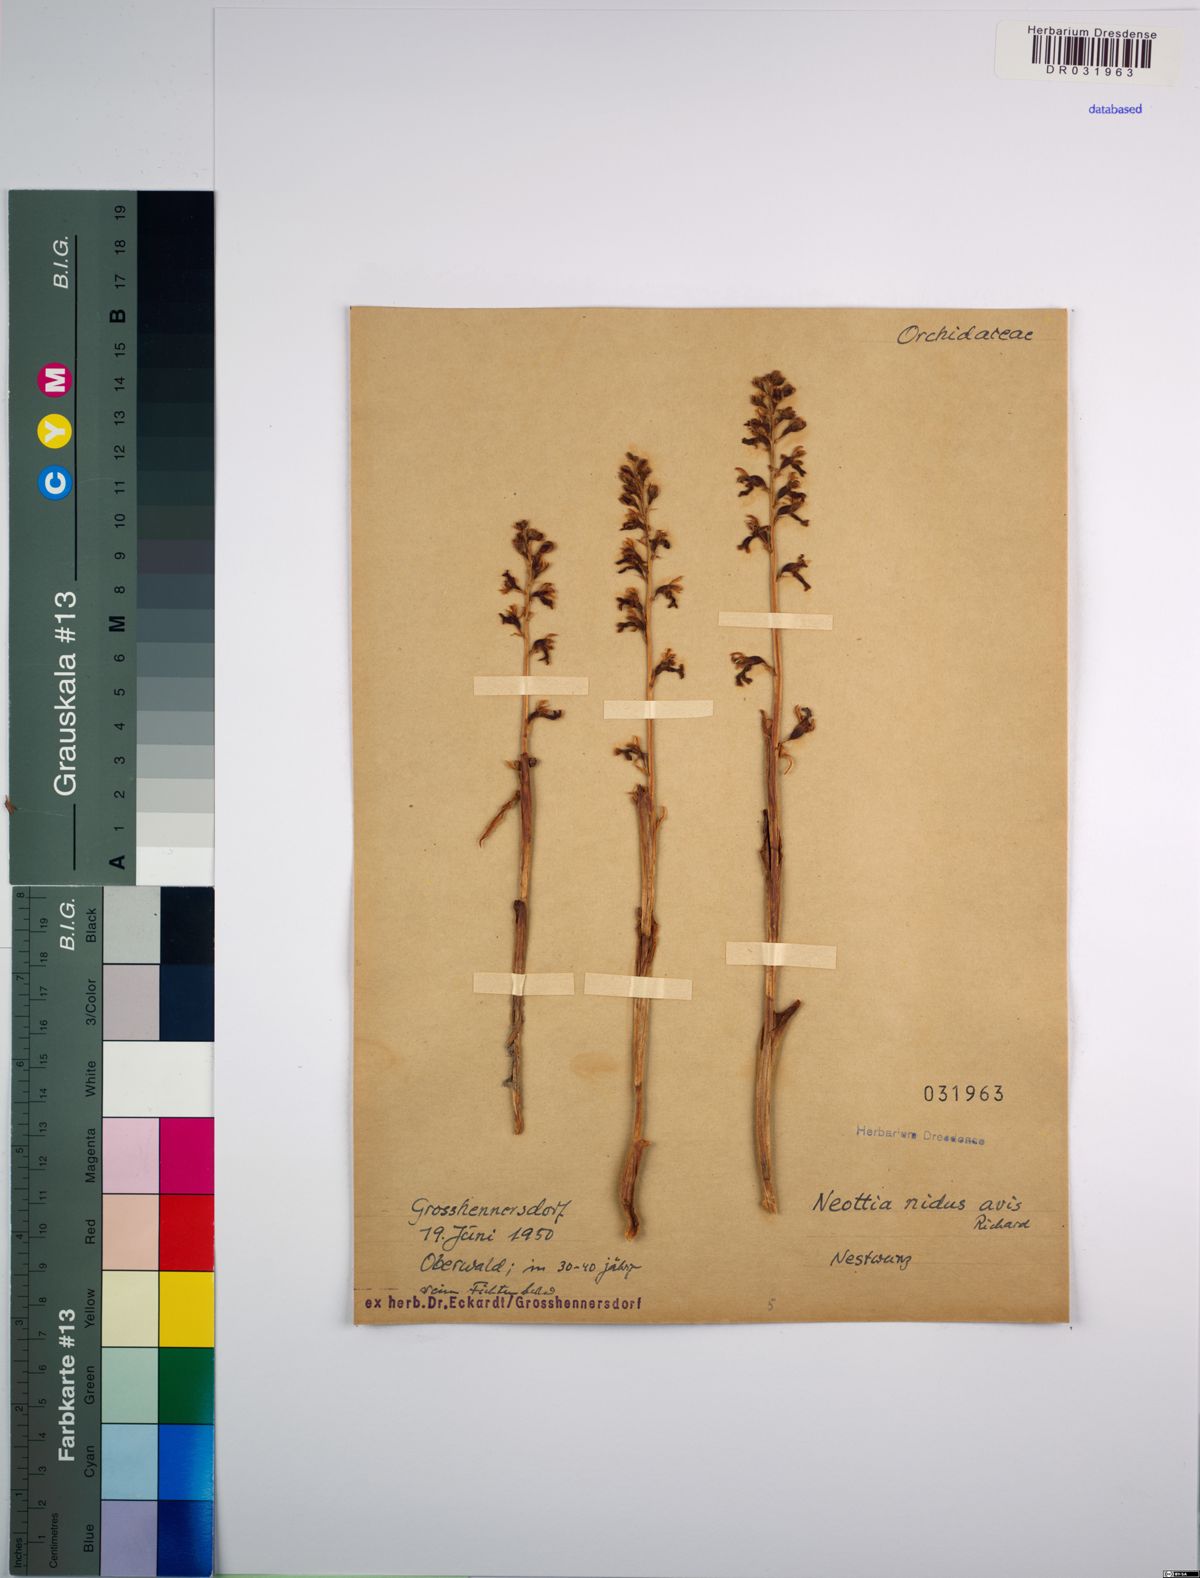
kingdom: Plantae
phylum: Tracheophyta
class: Liliopsida
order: Asparagales
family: Orchidaceae
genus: Neottia
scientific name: Neottia nidus-avis
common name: Bird's-nest orchid
